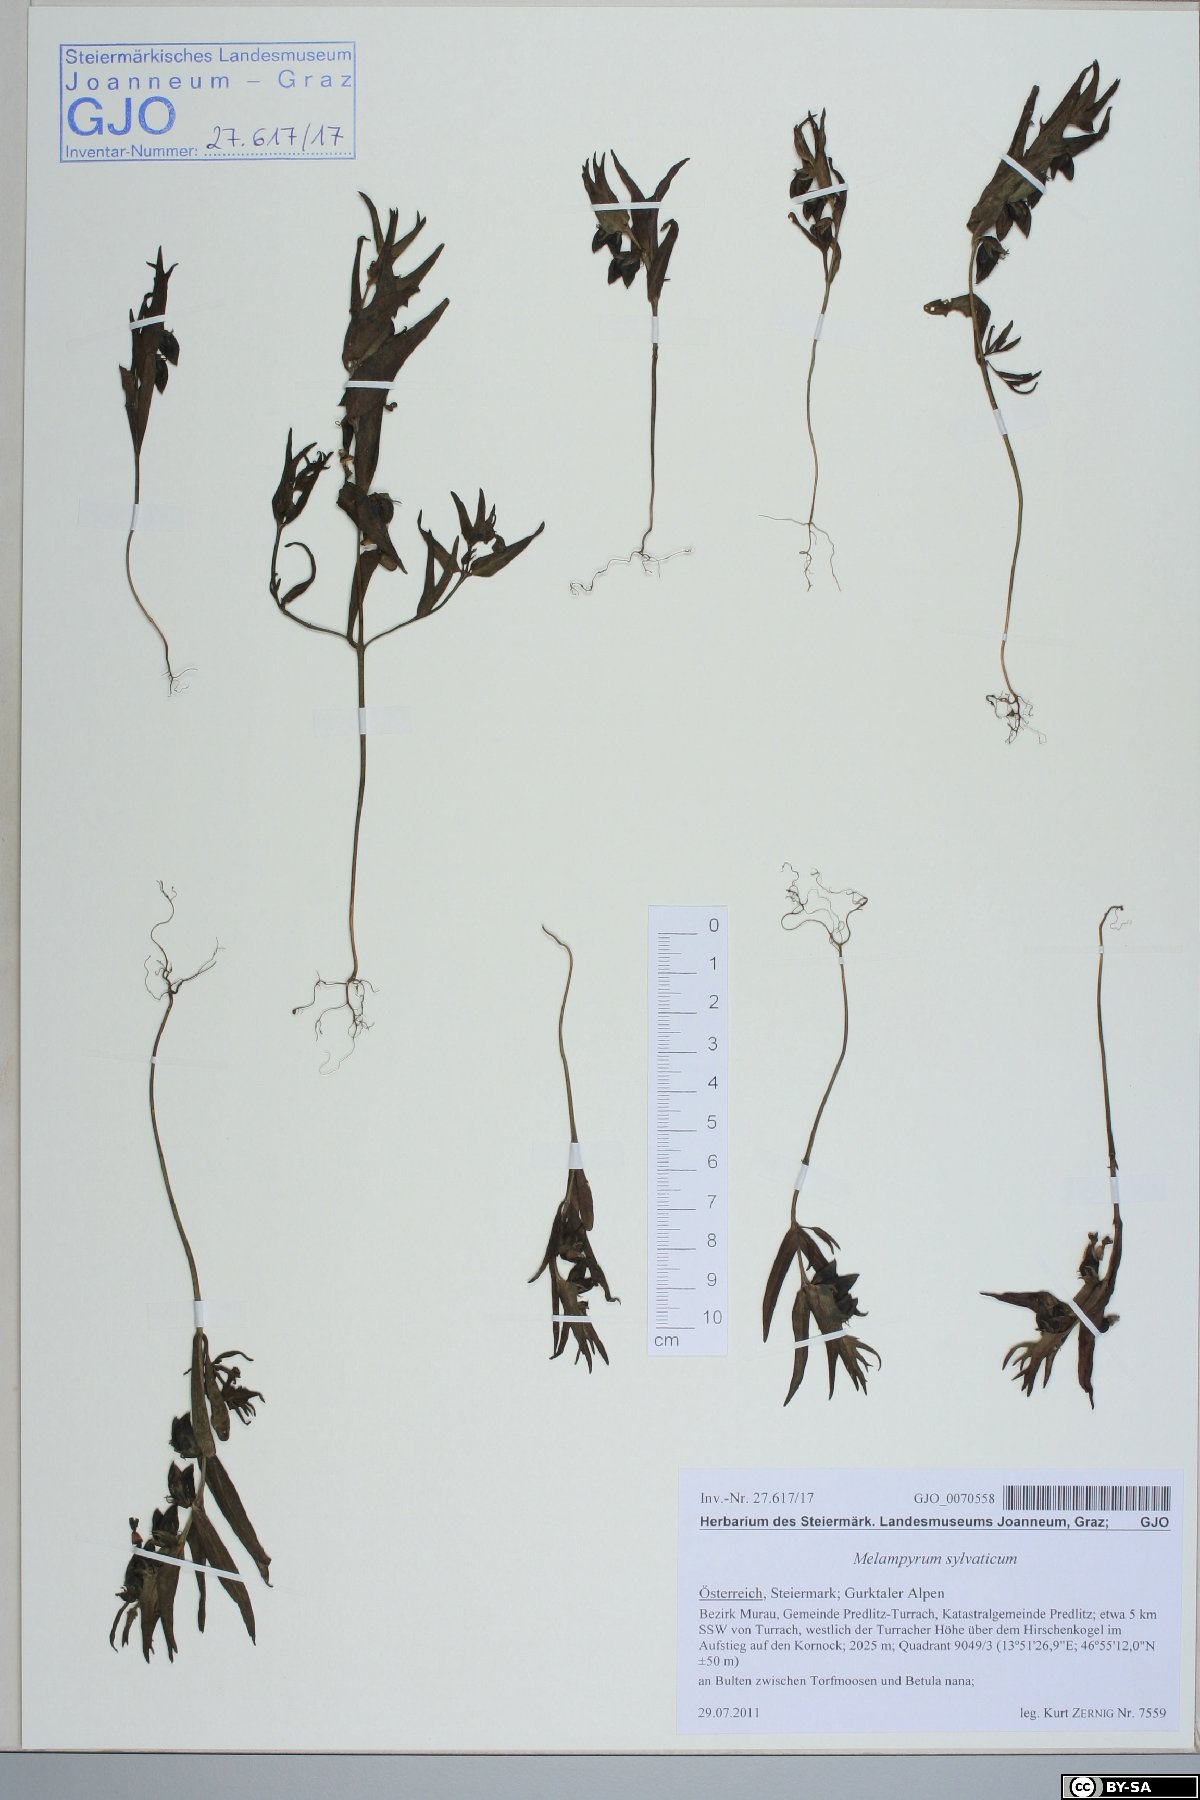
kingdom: Plantae
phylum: Tracheophyta
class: Magnoliopsida
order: Lamiales
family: Orobanchaceae
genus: Melampyrum
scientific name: Melampyrum sylvaticum
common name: Small cow-wheat
